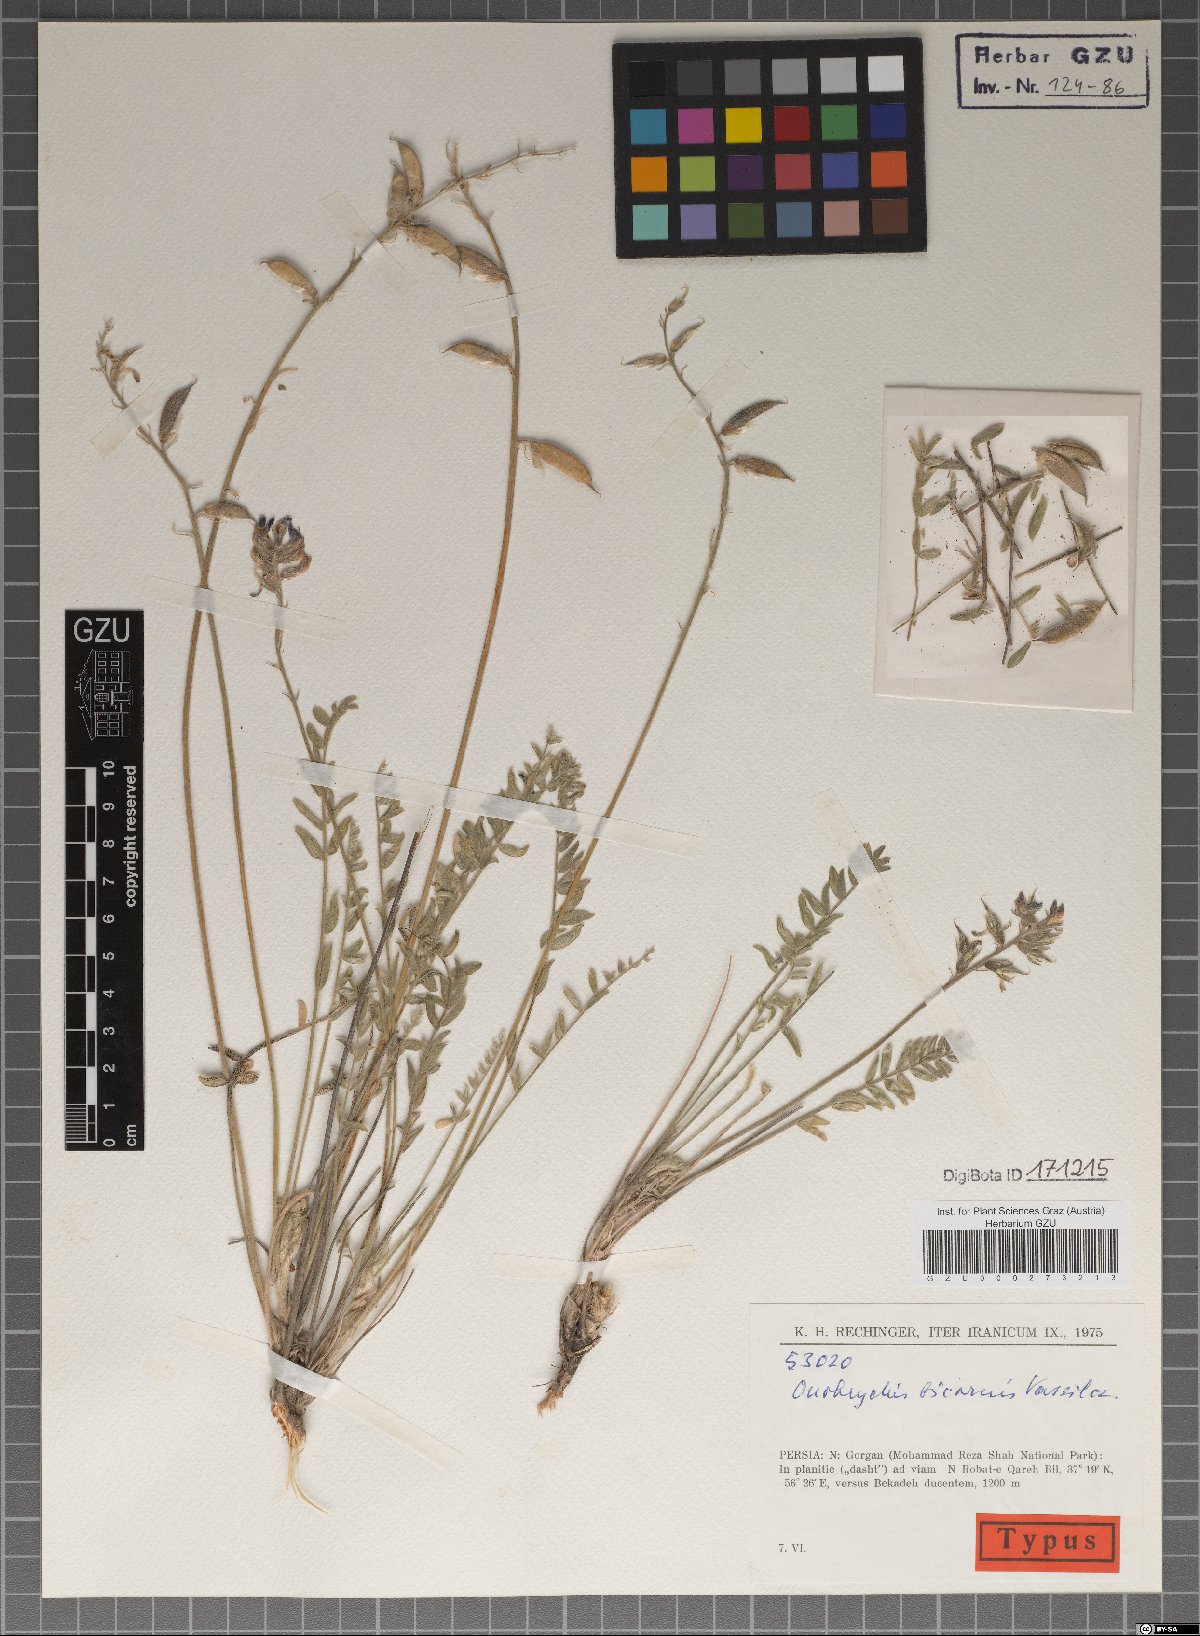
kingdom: Plantae
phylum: Tracheophyta
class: Magnoliopsida
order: Fabales
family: Fabaceae
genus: Onobrychis
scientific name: Onobrychis bicornis
